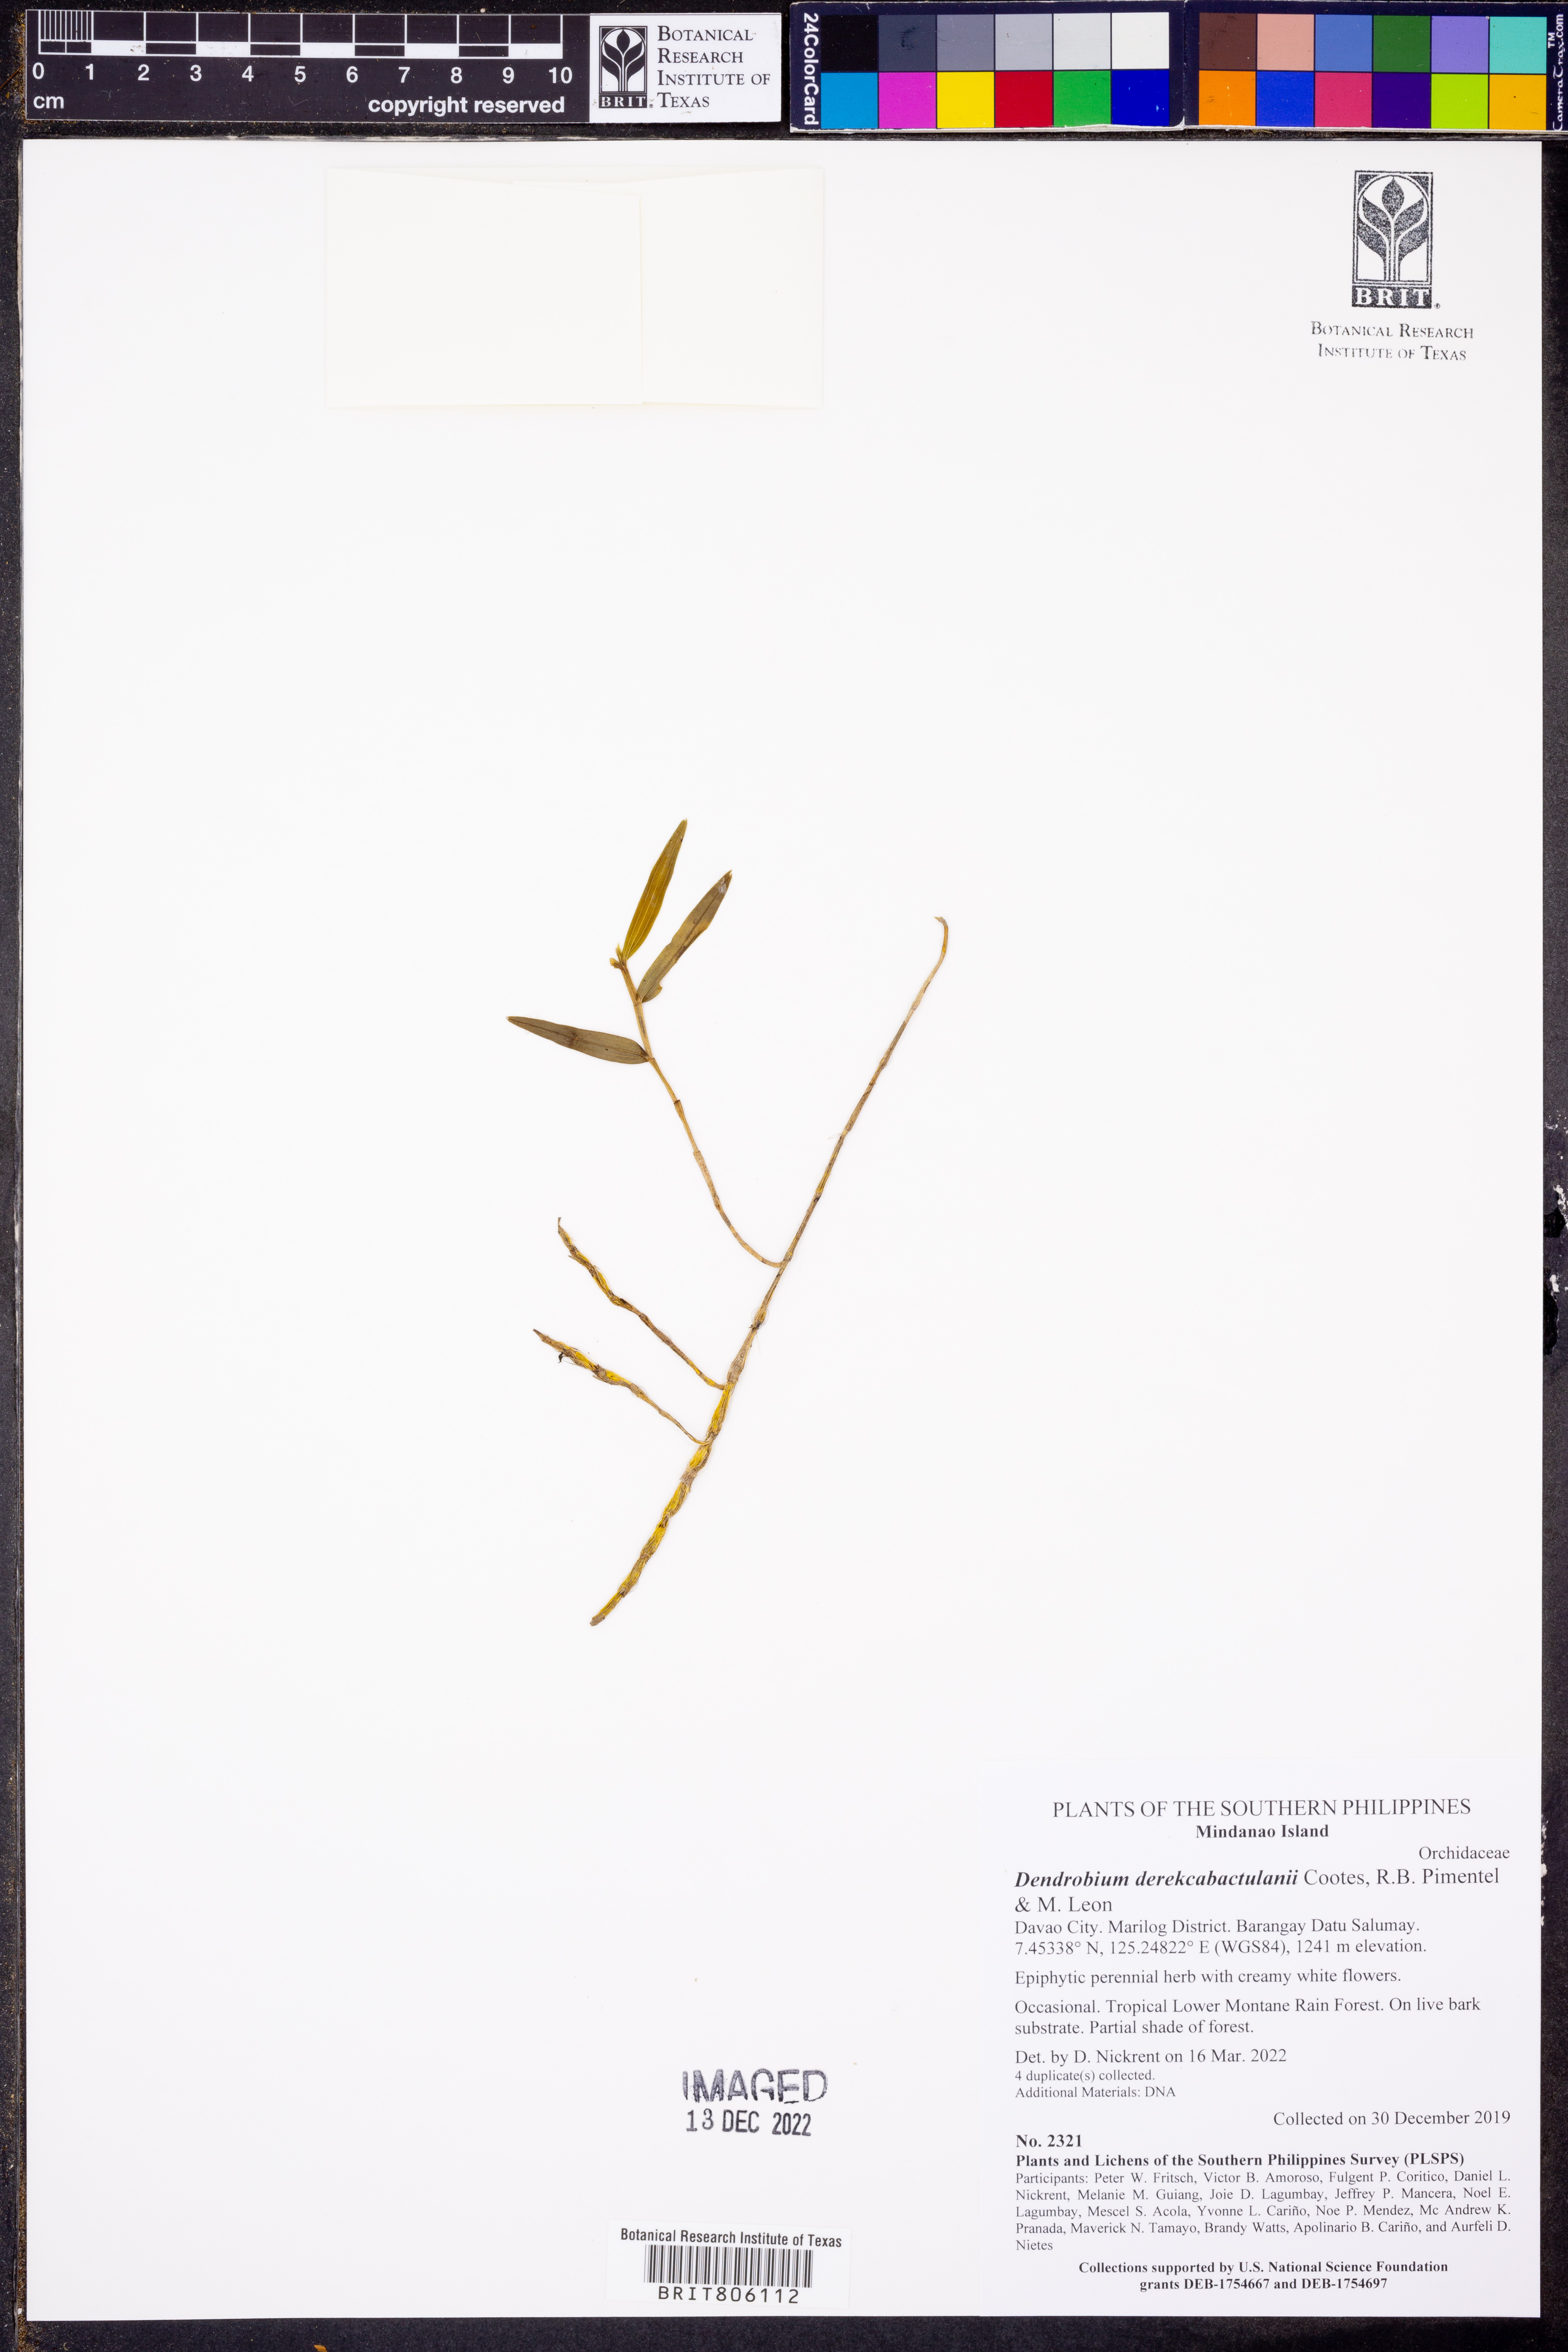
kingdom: Plantae
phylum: Tracheophyta
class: Liliopsida
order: Asparagales
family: Orchidaceae
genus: Dendrobium
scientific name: Dendrobium derekcabactulanii
